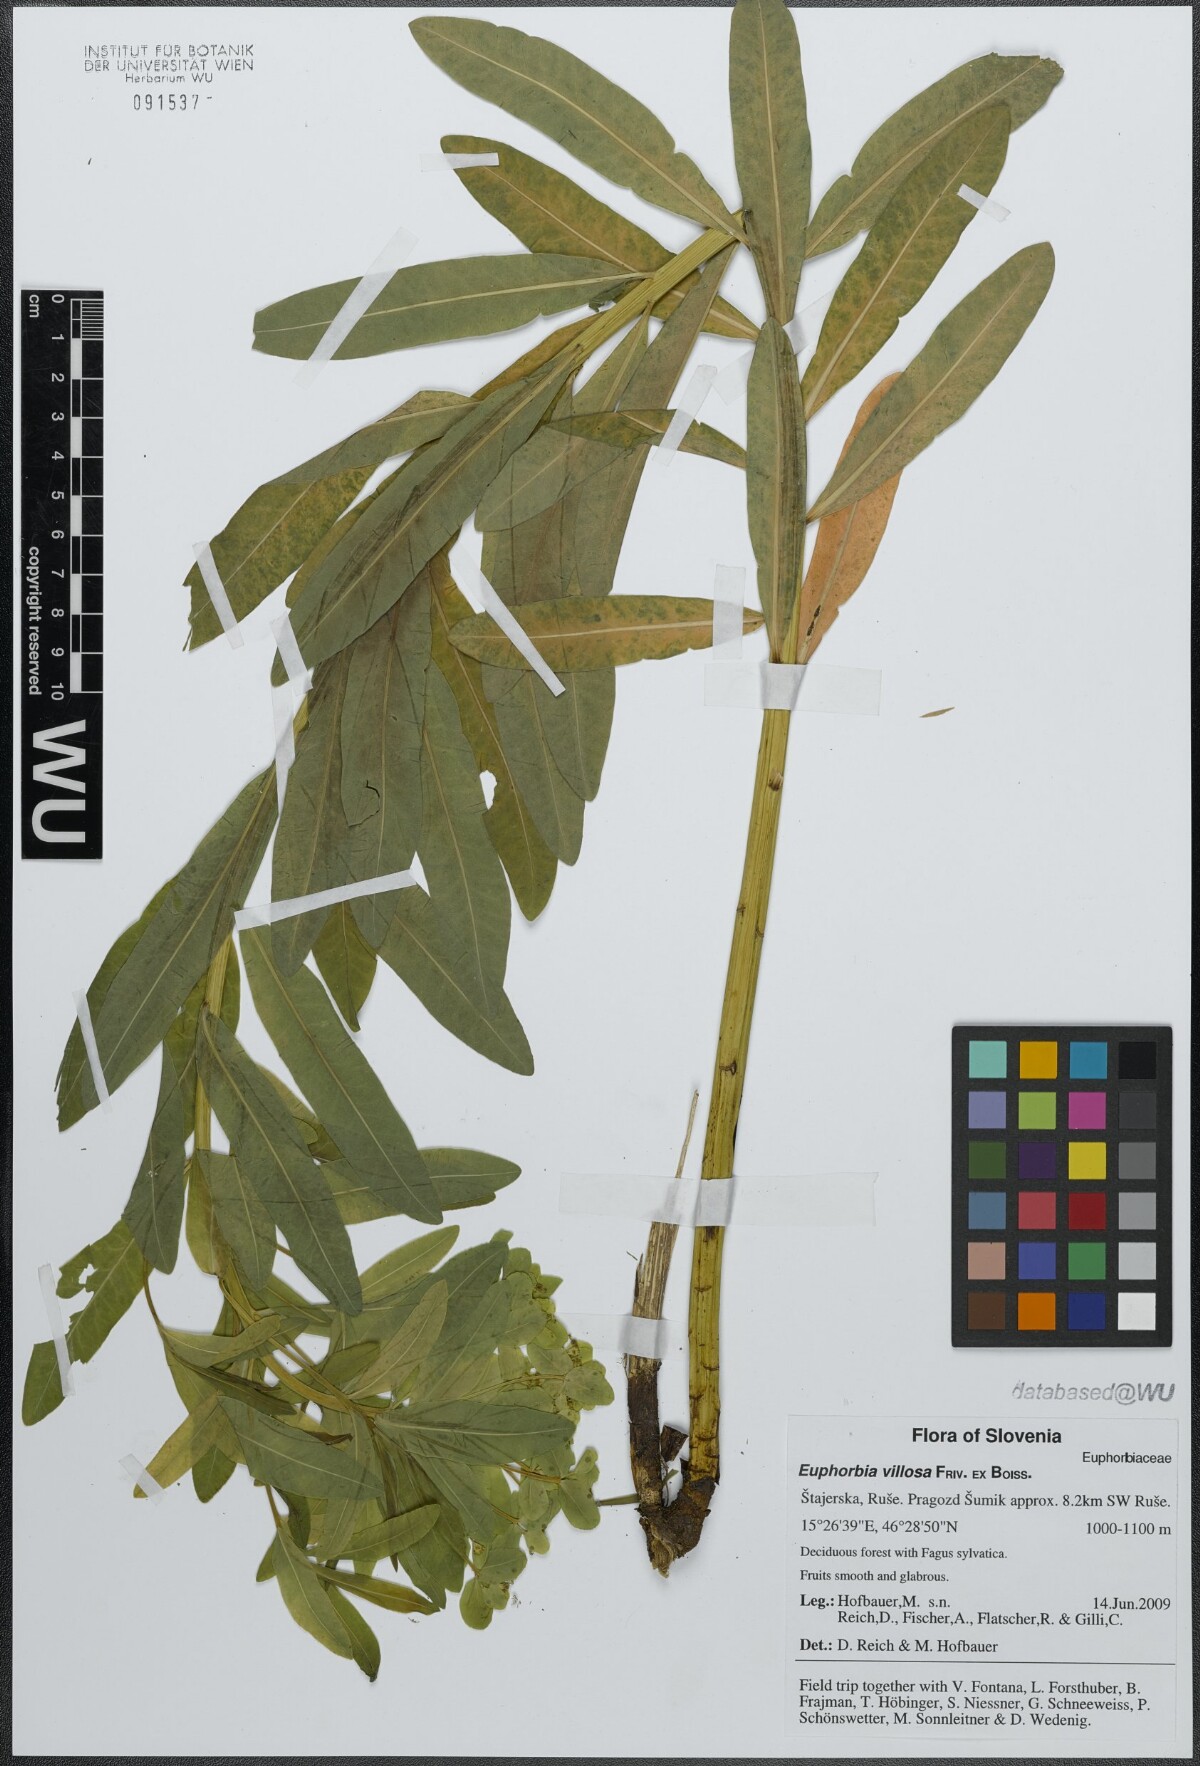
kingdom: Plantae
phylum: Tracheophyta
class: Magnoliopsida
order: Malpighiales
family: Euphorbiaceae
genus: Euphorbia
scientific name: Euphorbia epithymoides
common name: Cushion spurge
